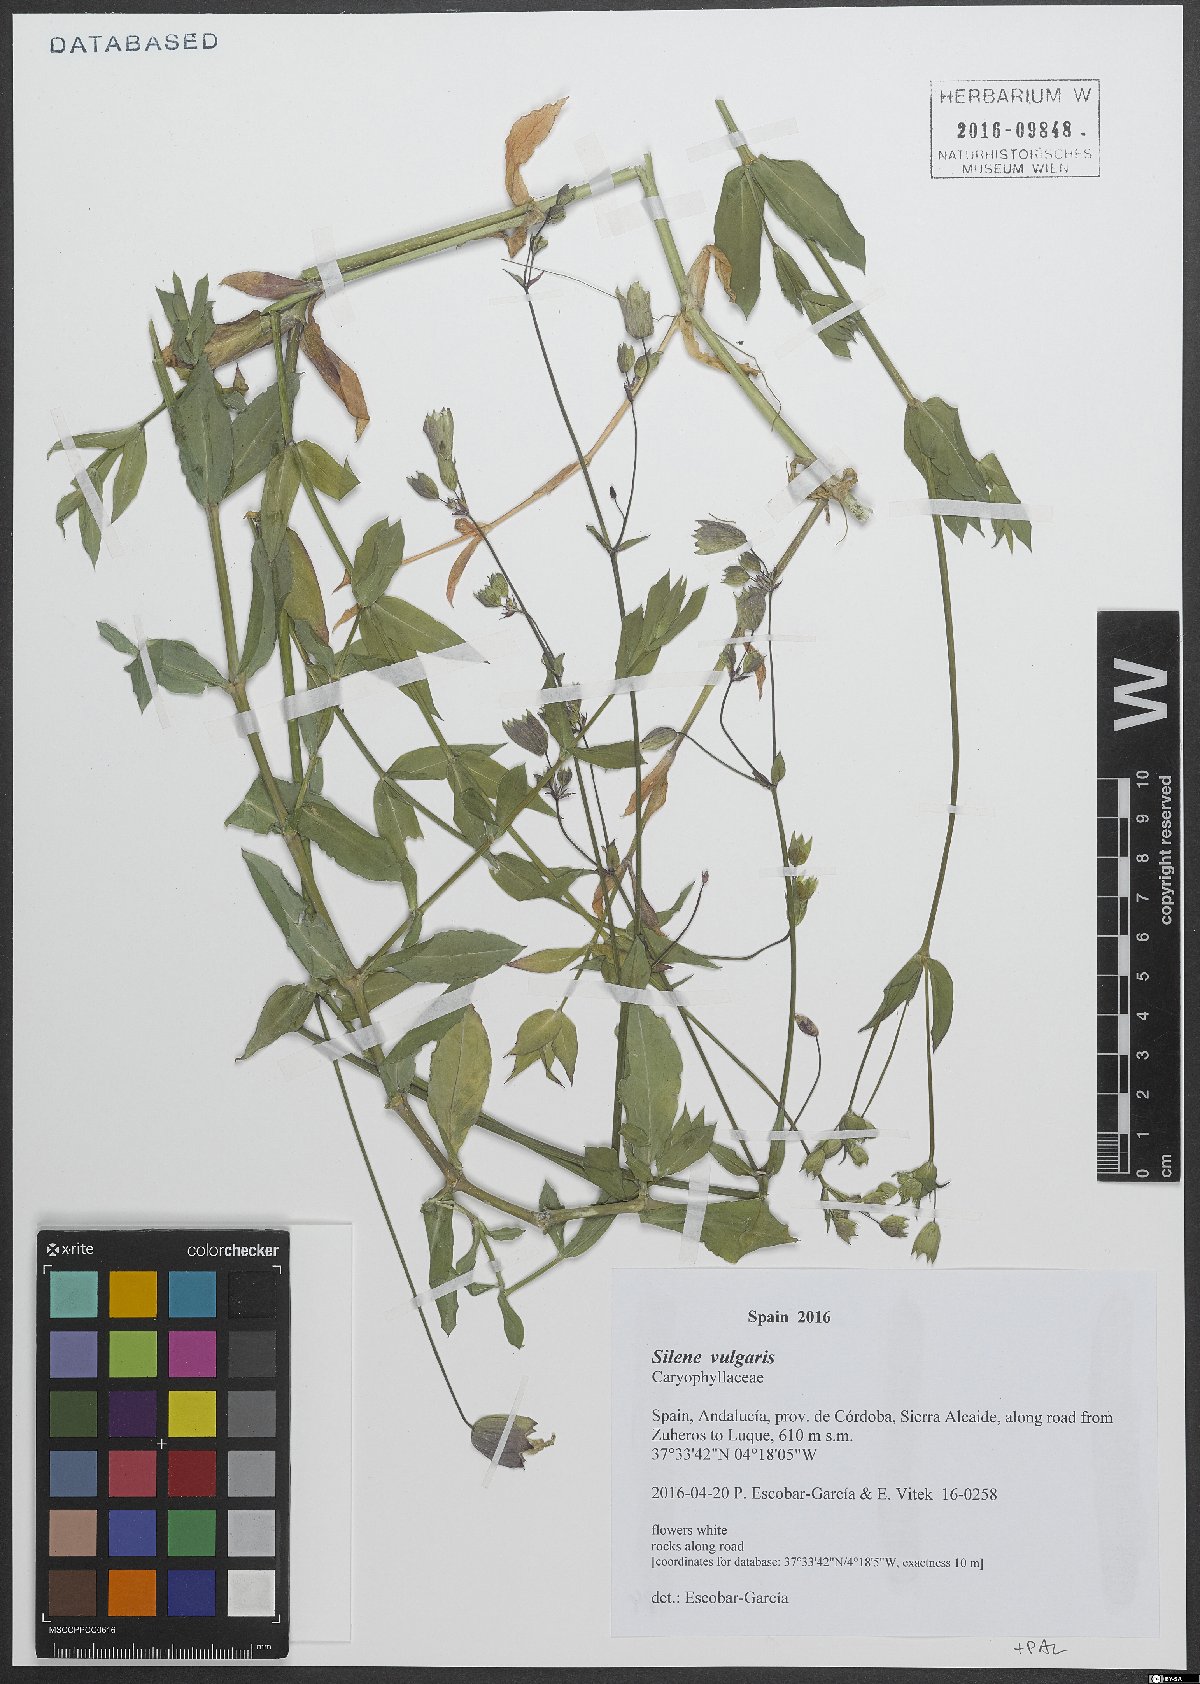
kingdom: Plantae
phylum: Tracheophyta
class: Magnoliopsida
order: Caryophyllales
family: Caryophyllaceae
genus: Silene
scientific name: Silene vulgaris
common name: Bladder campion
